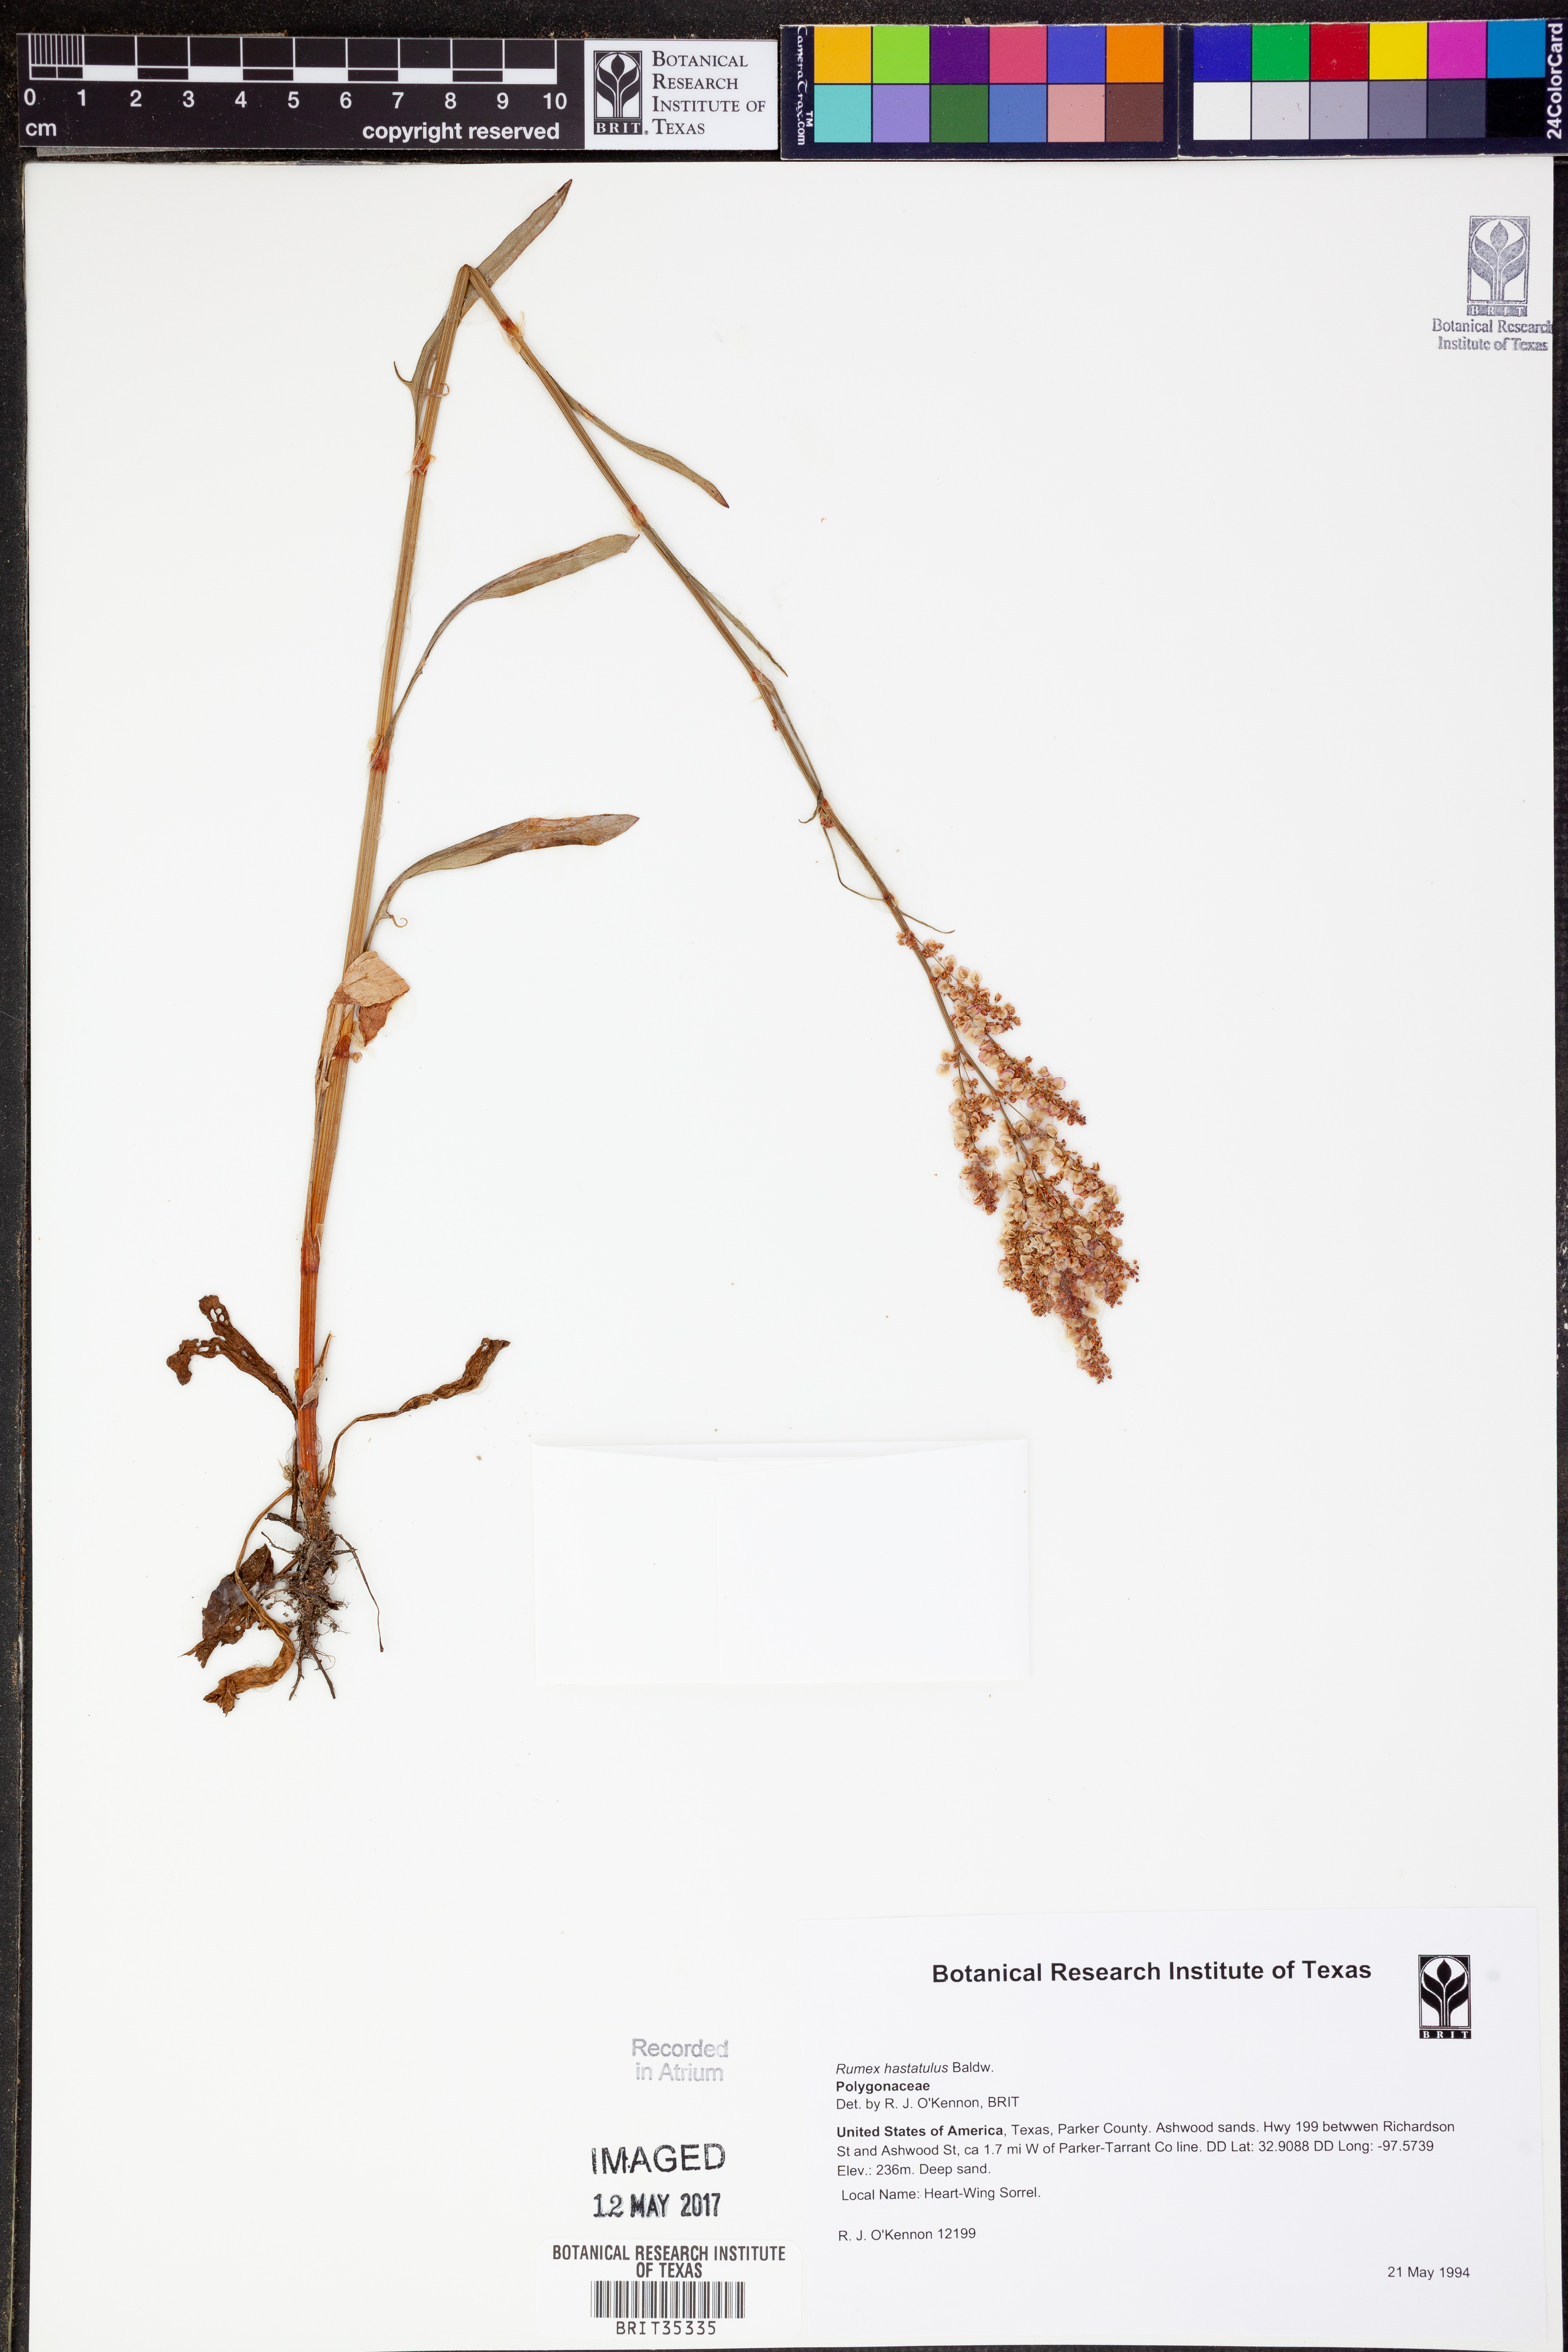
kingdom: Plantae
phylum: Tracheophyta
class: Magnoliopsida
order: Caryophyllales
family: Polygonaceae
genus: Rumex
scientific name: Rumex hastatulus
